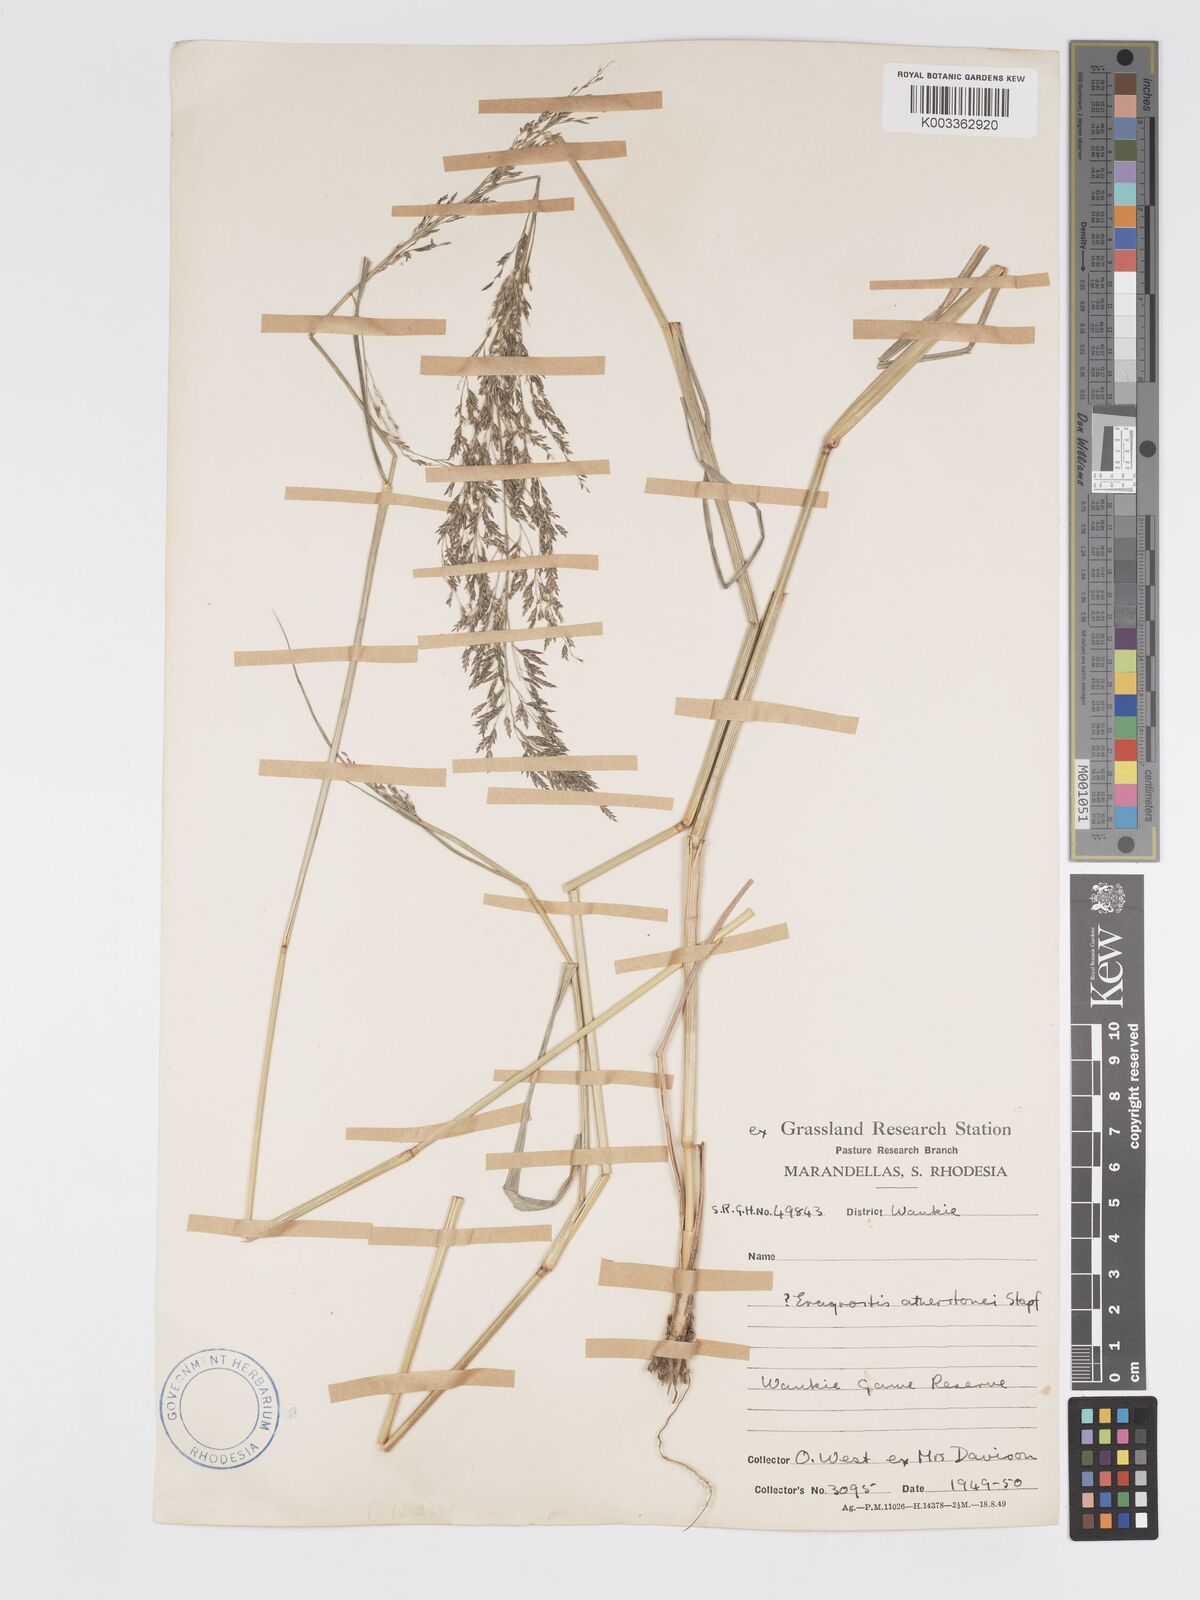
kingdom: Plantae
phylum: Tracheophyta
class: Liliopsida
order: Poales
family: Poaceae
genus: Eragrostis
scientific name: Eragrostis cylindriflora
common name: Cylinderflower lovegrass
